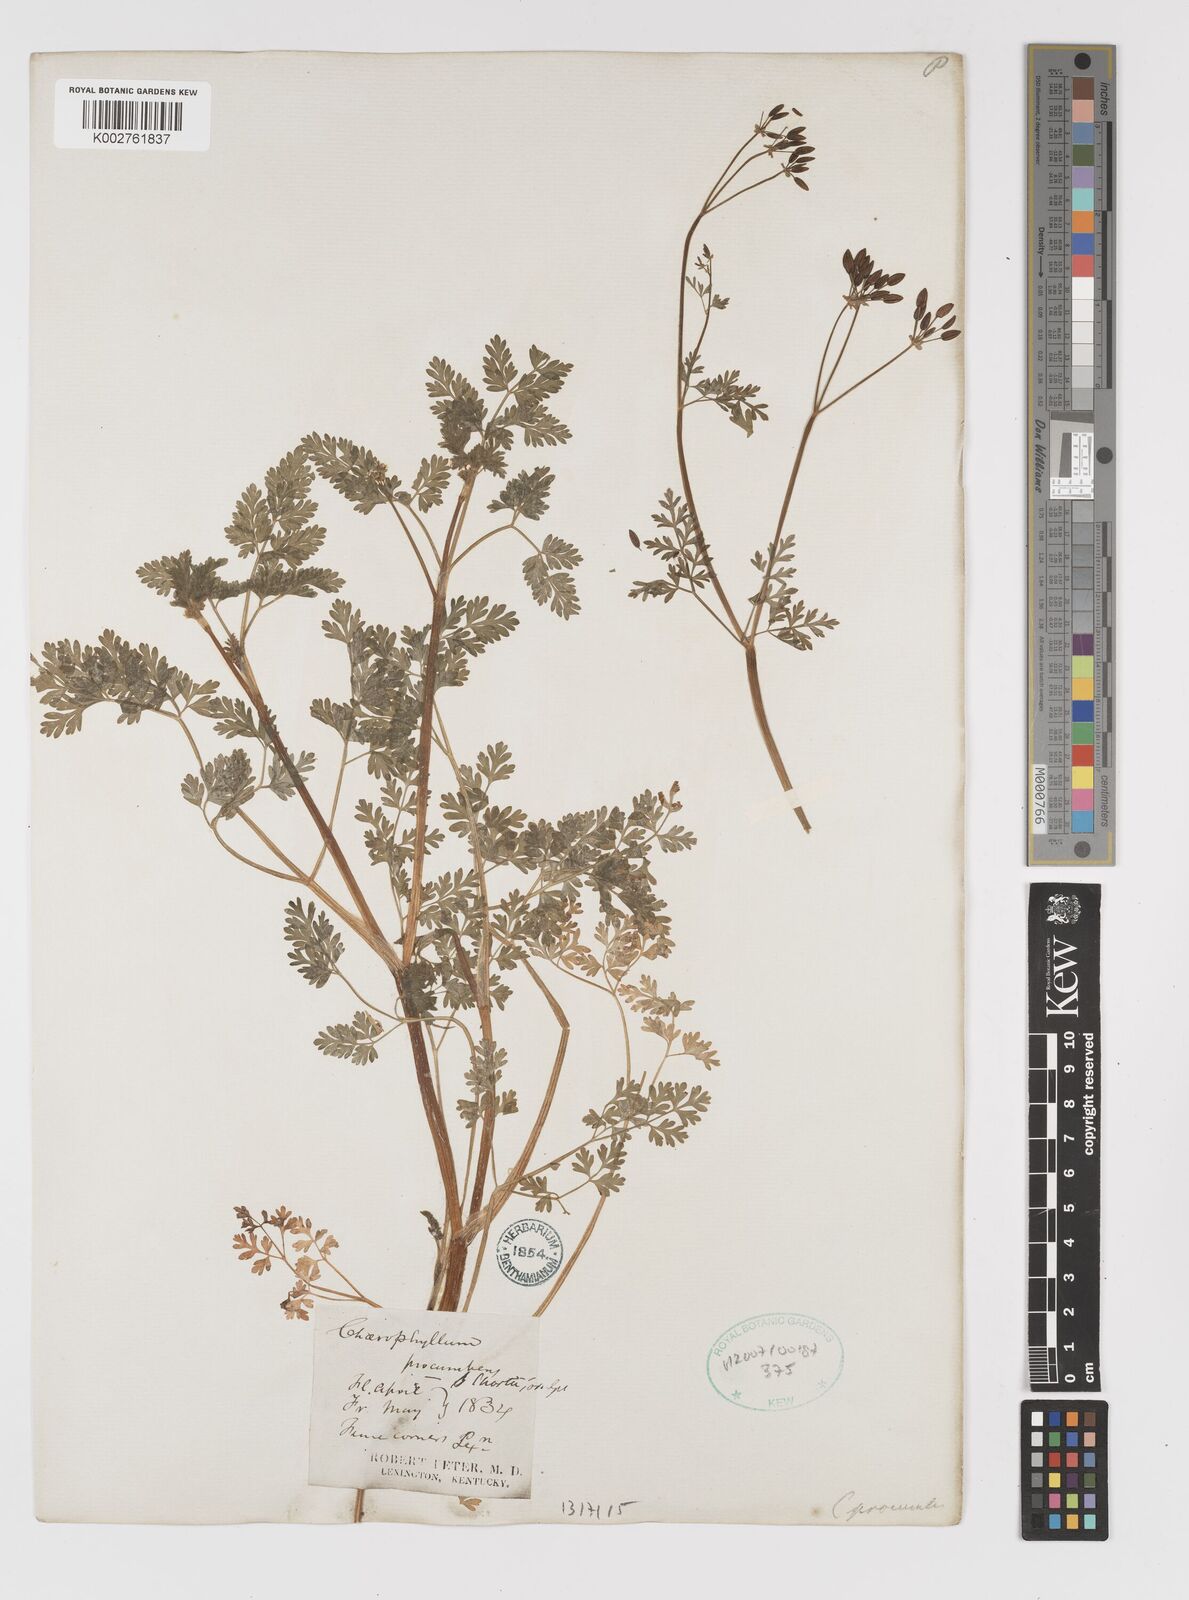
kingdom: Plantae
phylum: Tracheophyta
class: Magnoliopsida
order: Apiales
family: Apiaceae
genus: Chaerophyllum
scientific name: Chaerophyllum procumbens
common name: Spreading chervil
